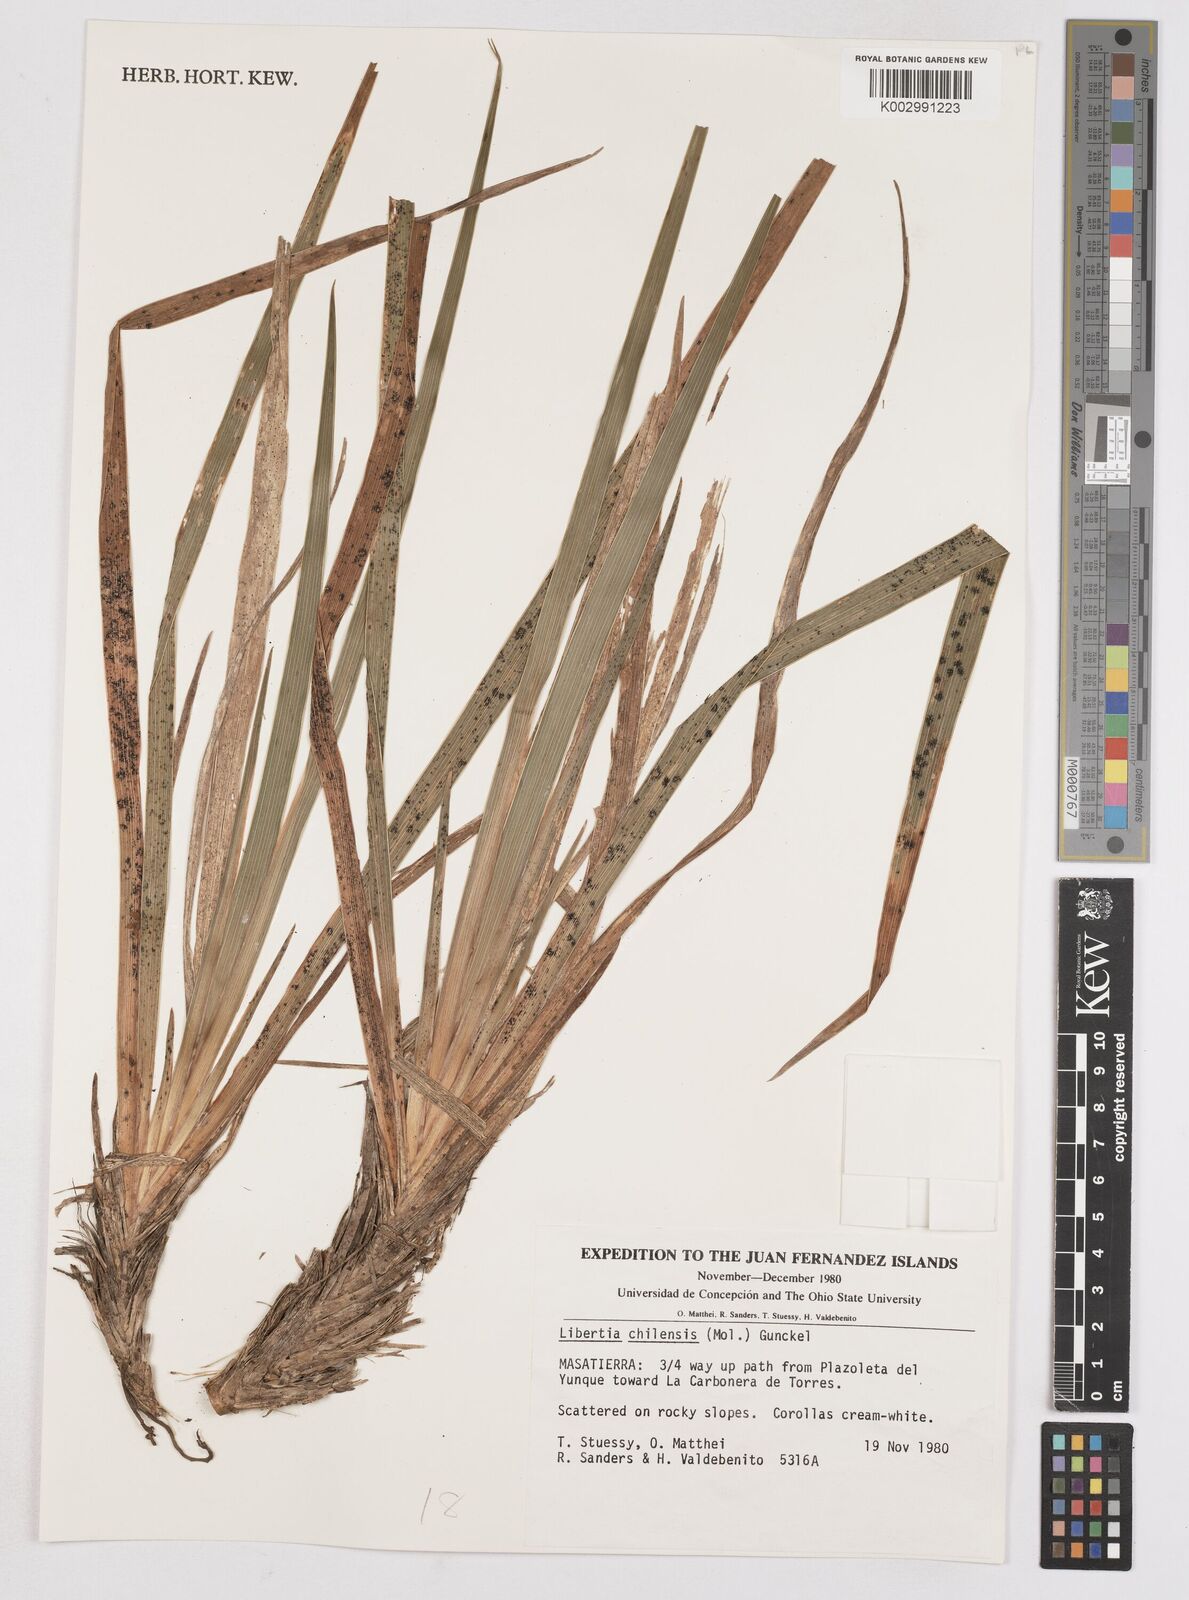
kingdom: Plantae
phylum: Tracheophyta
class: Liliopsida
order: Asparagales
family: Iridaceae
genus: Libertia
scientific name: Libertia chilensis
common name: Satin flower
